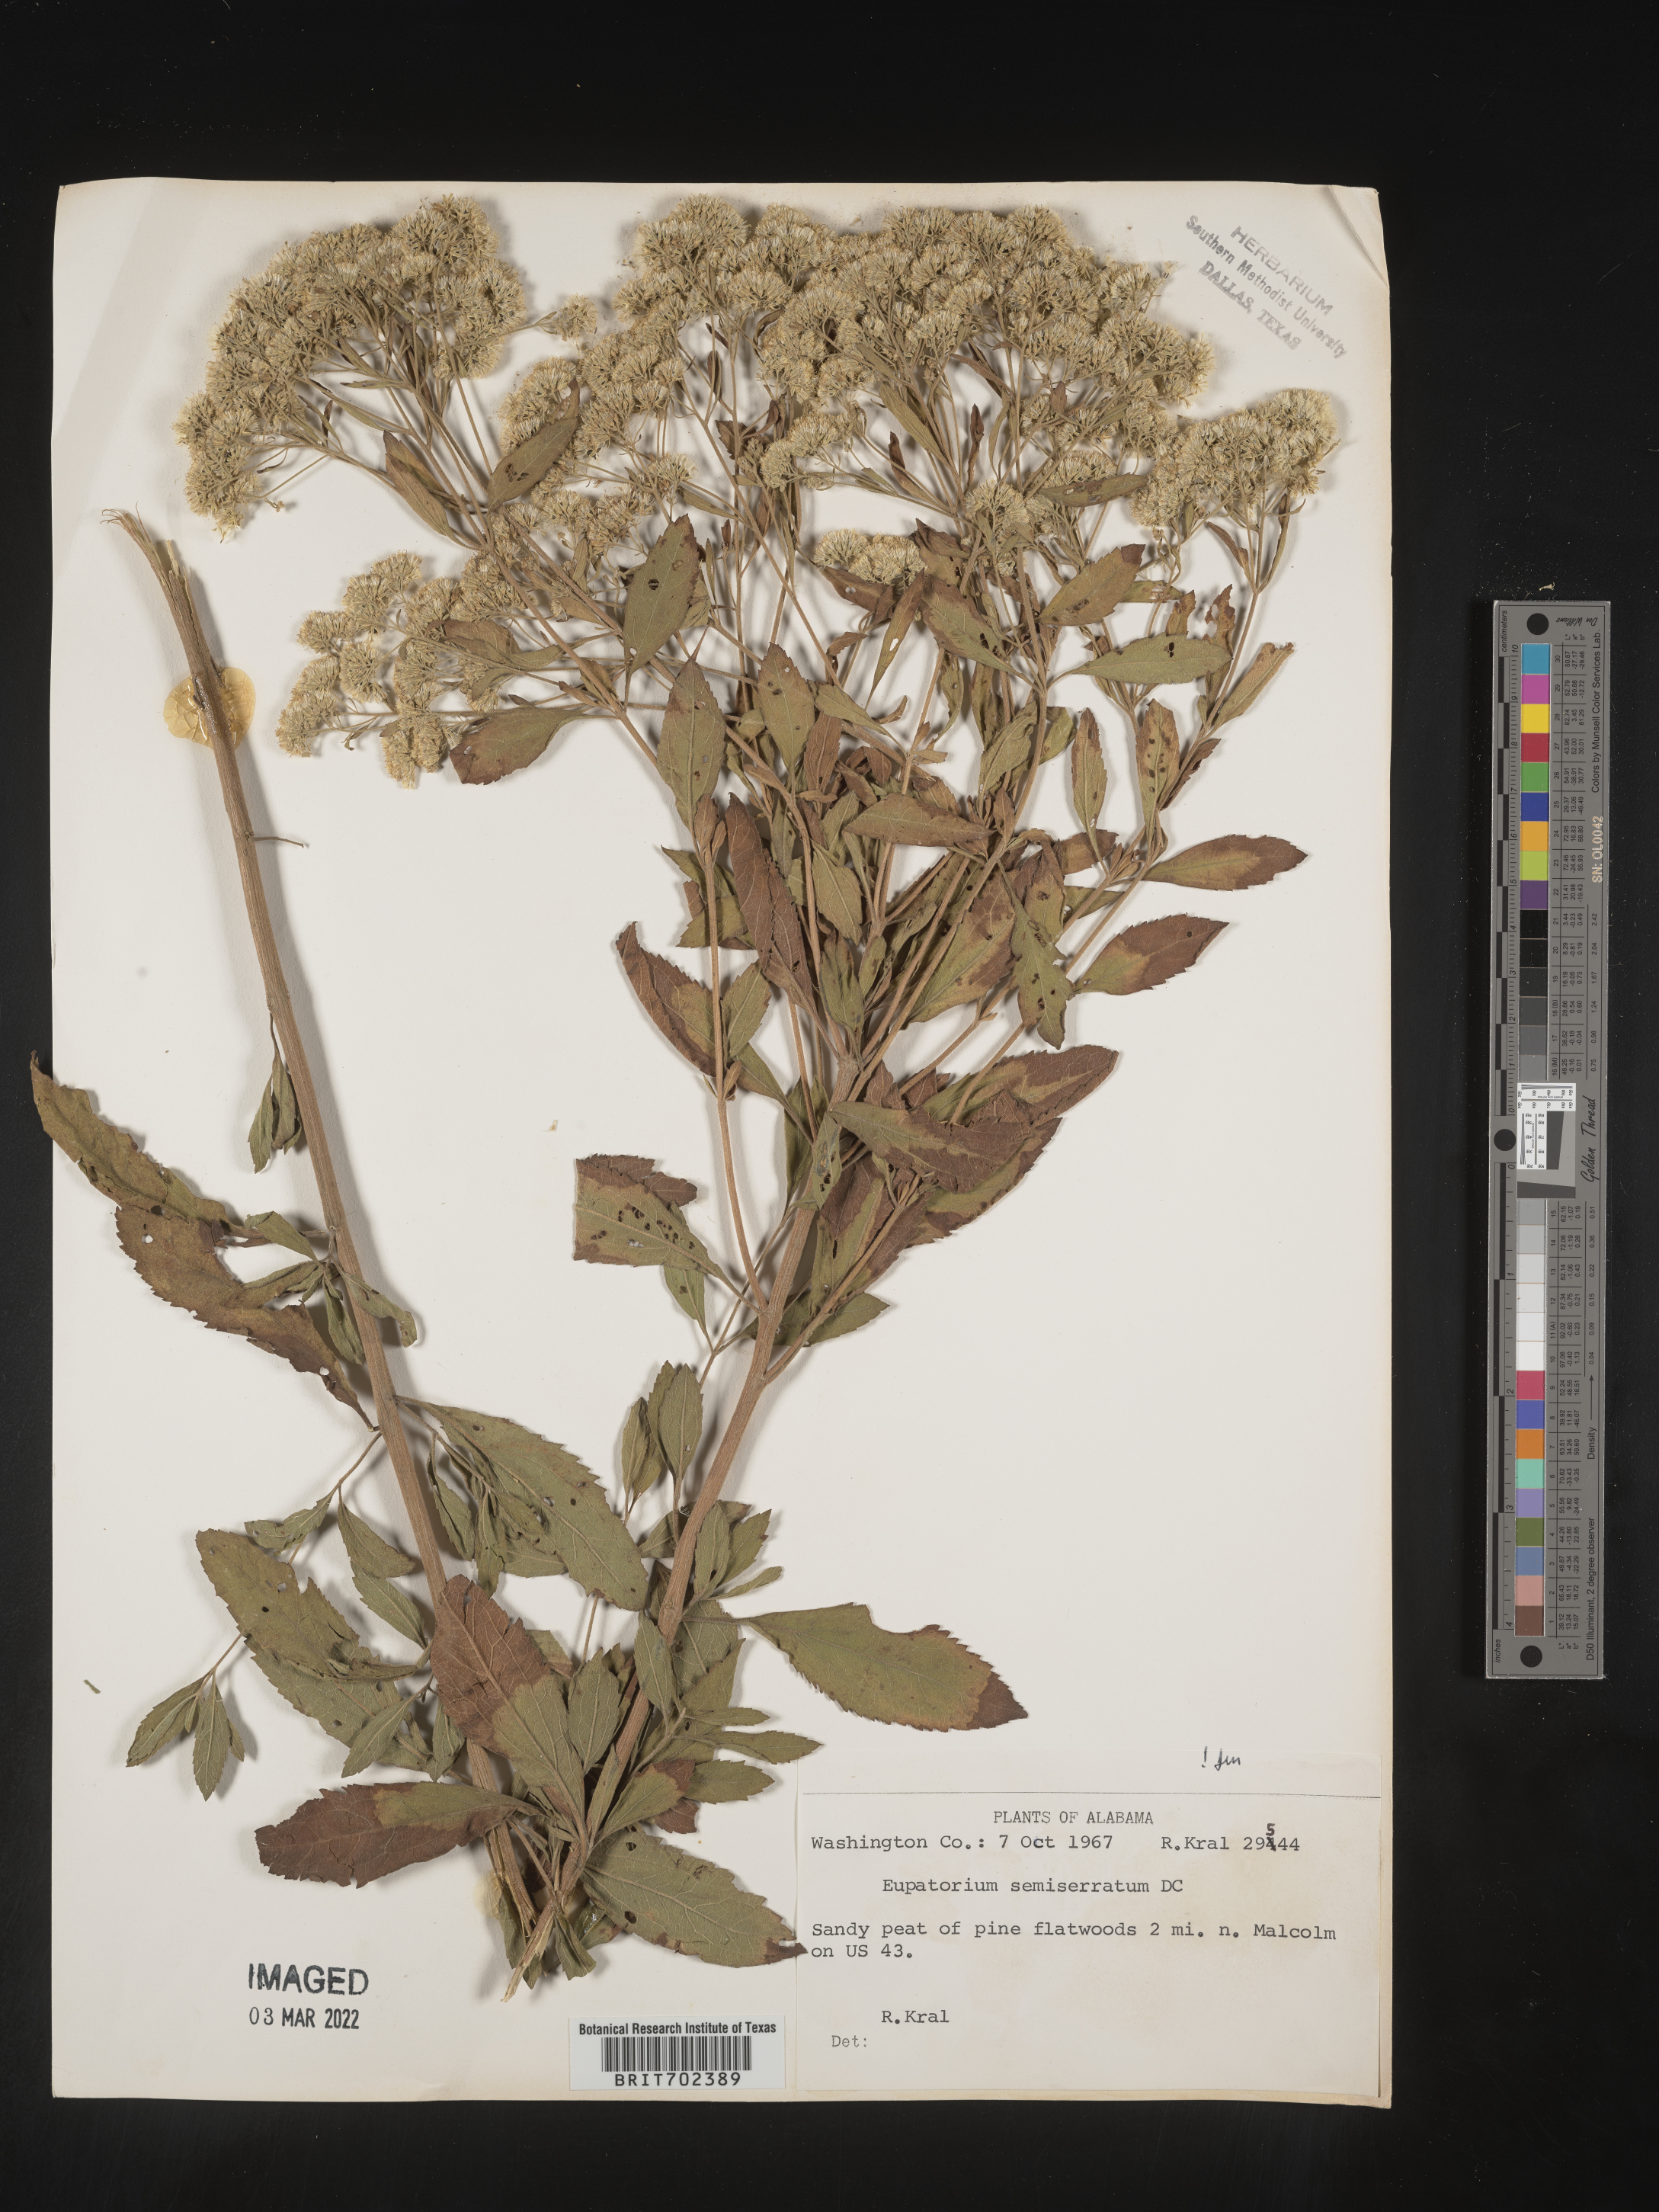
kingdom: Plantae
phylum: Tracheophyta
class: Magnoliopsida
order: Asterales
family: Asteraceae
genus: Eupatorium
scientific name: Eupatorium semiserratum
